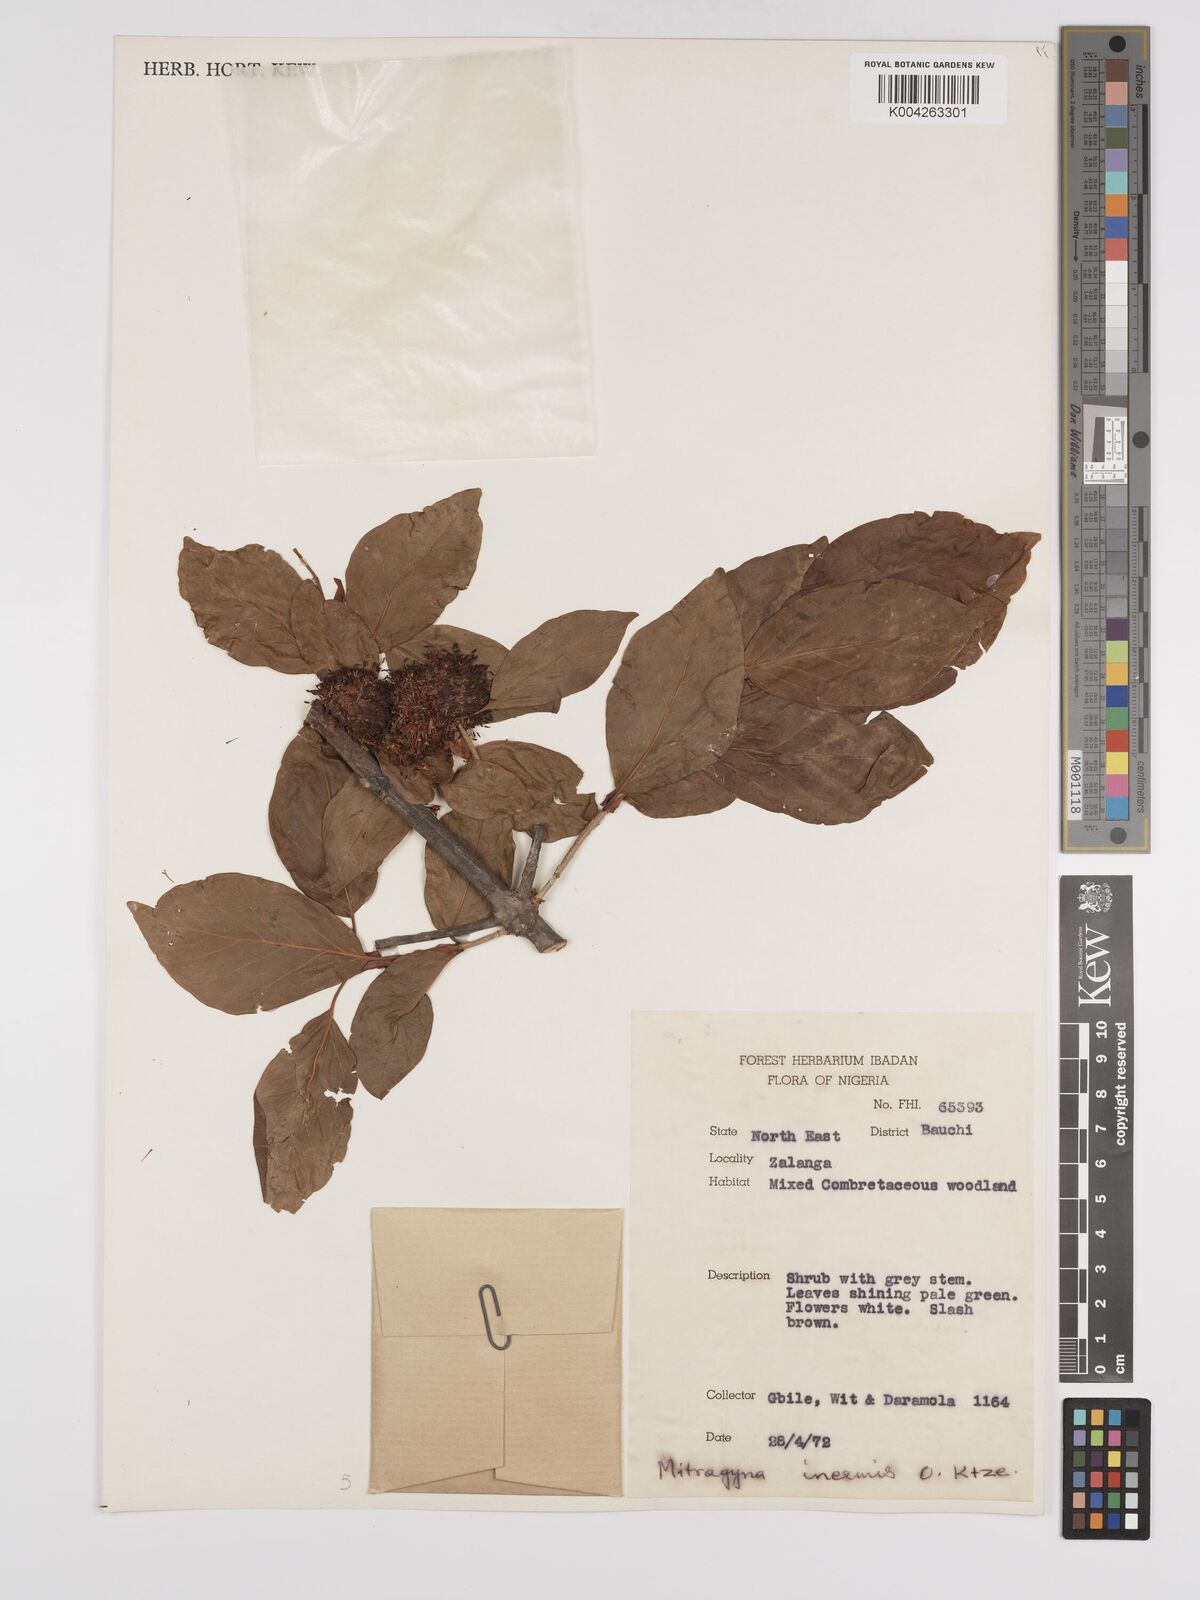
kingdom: Plantae
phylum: Tracheophyta
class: Magnoliopsida
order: Gentianales
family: Rubiaceae
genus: Mitragyna
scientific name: Mitragyna inermis
